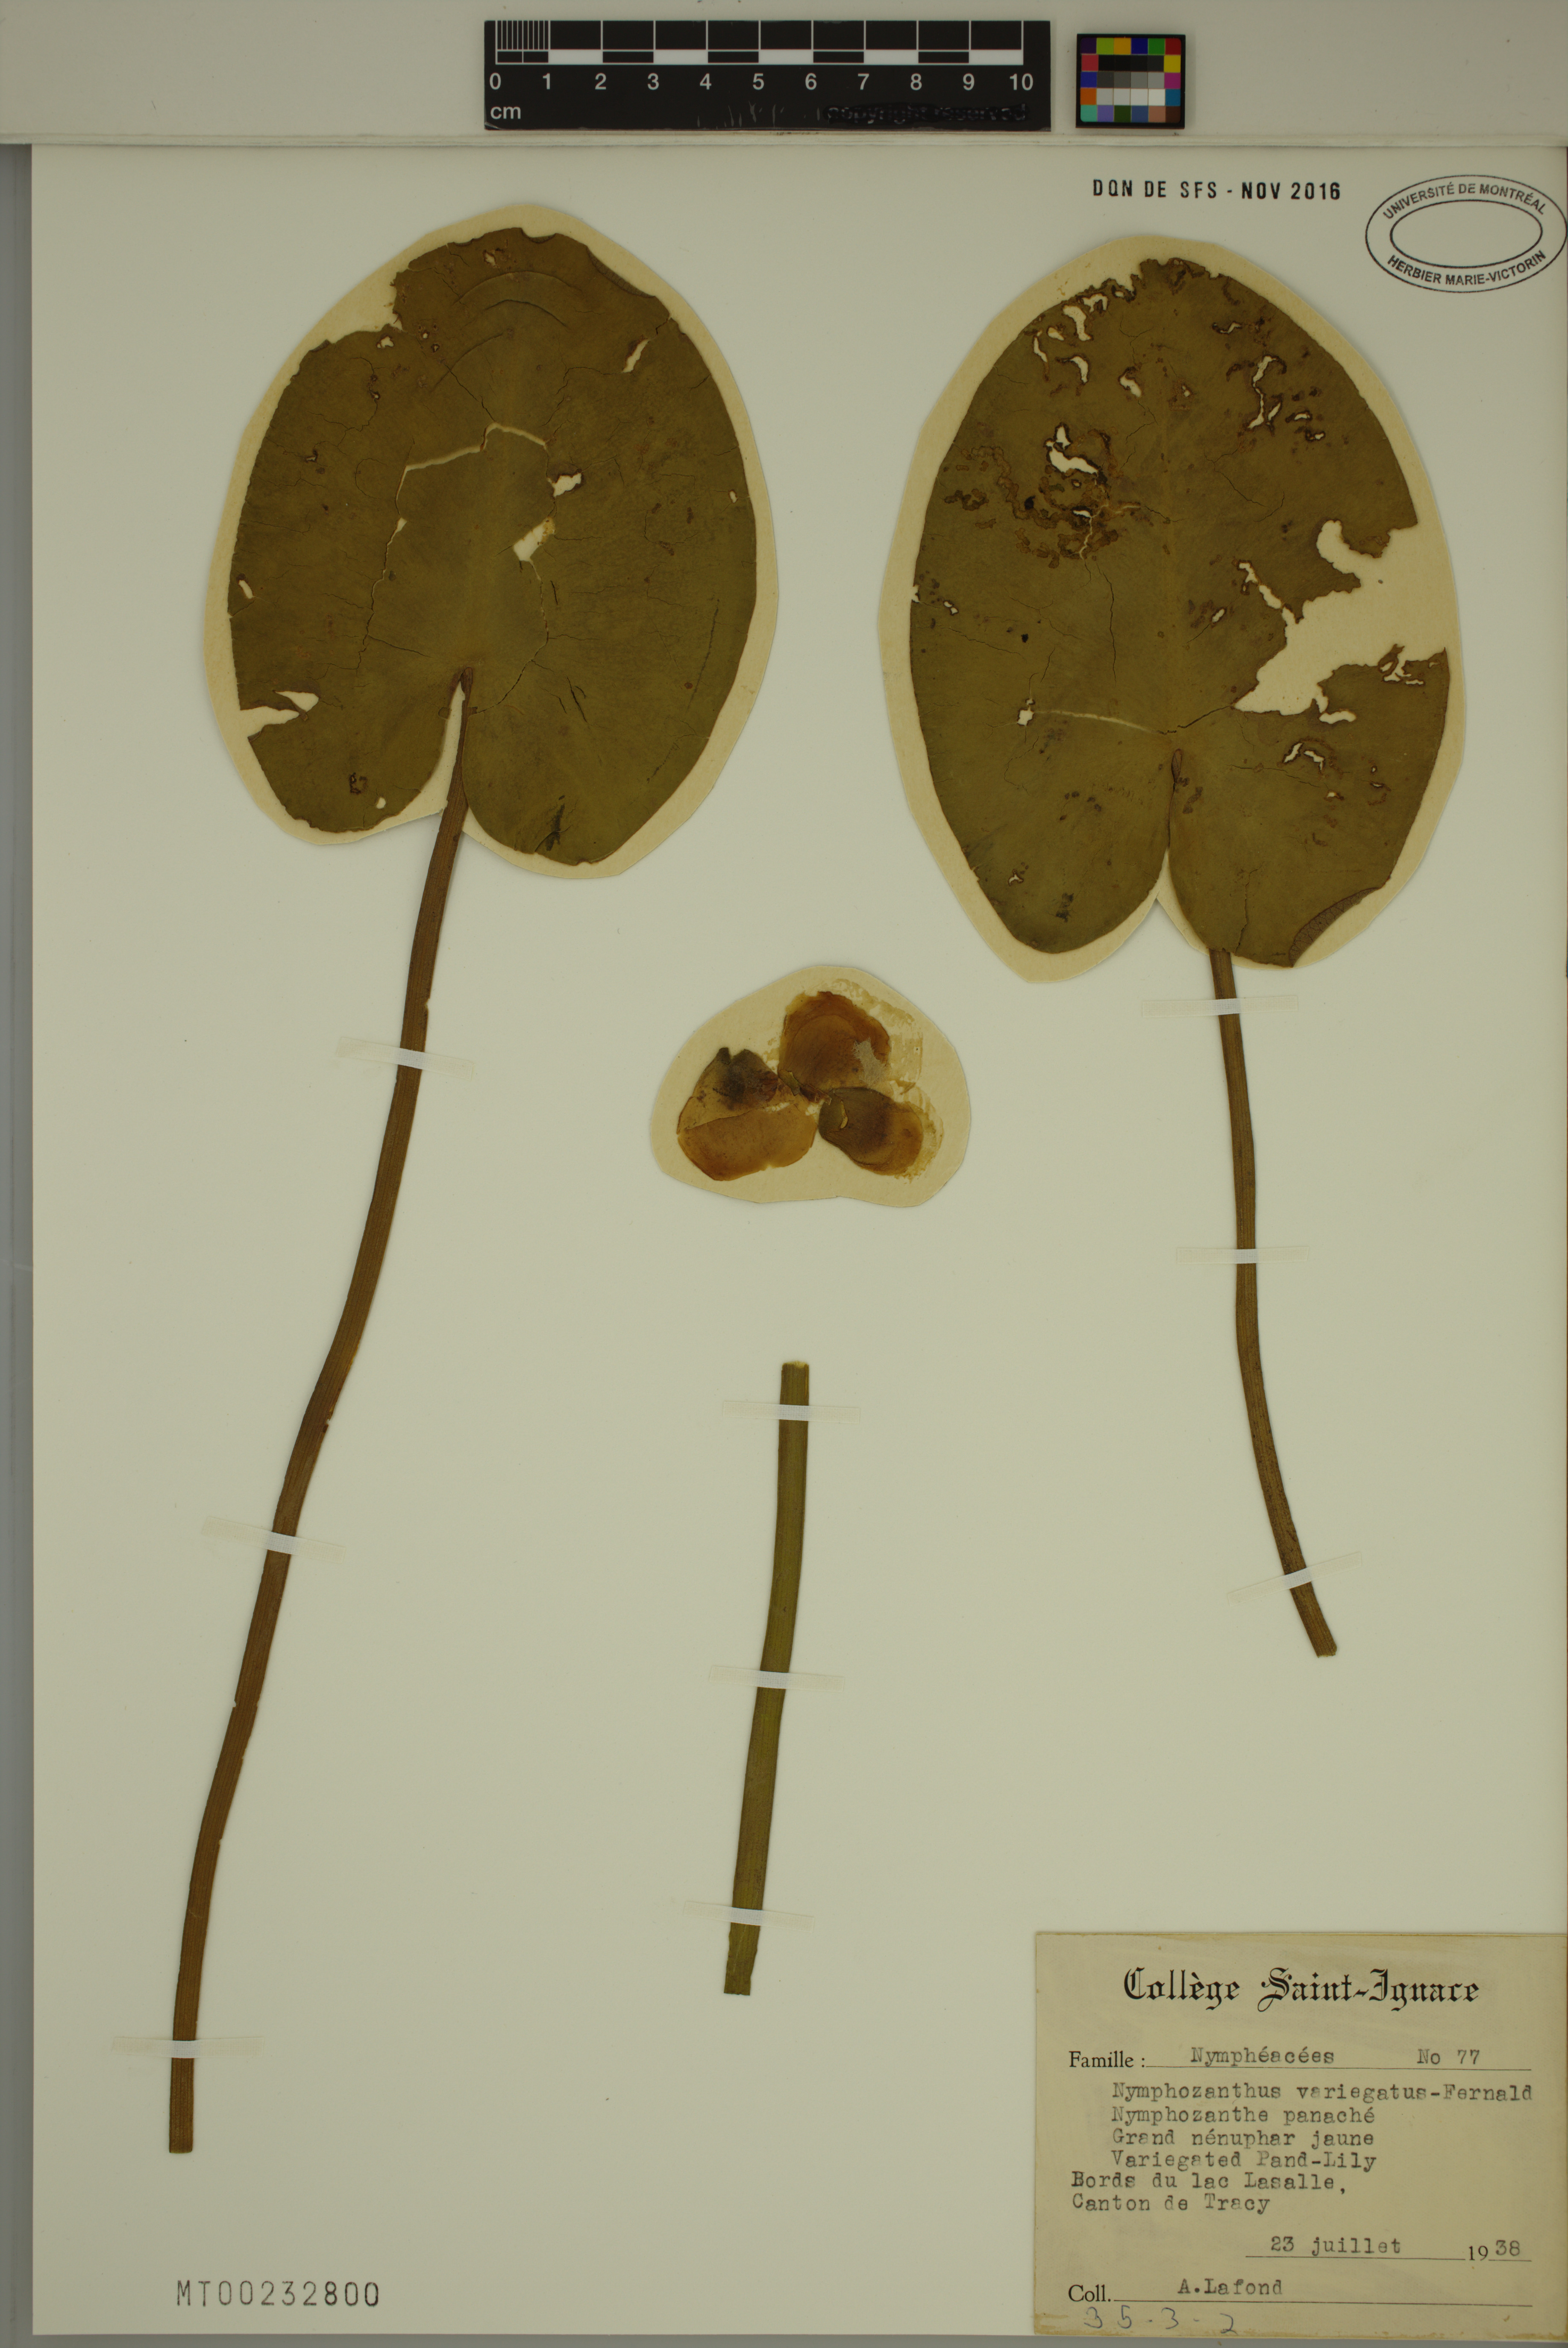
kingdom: Plantae
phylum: Tracheophyta
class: Magnoliopsida
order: Nymphaeales
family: Nymphaeaceae
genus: Nuphar
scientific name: Nuphar variegata
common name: Beaver-root
